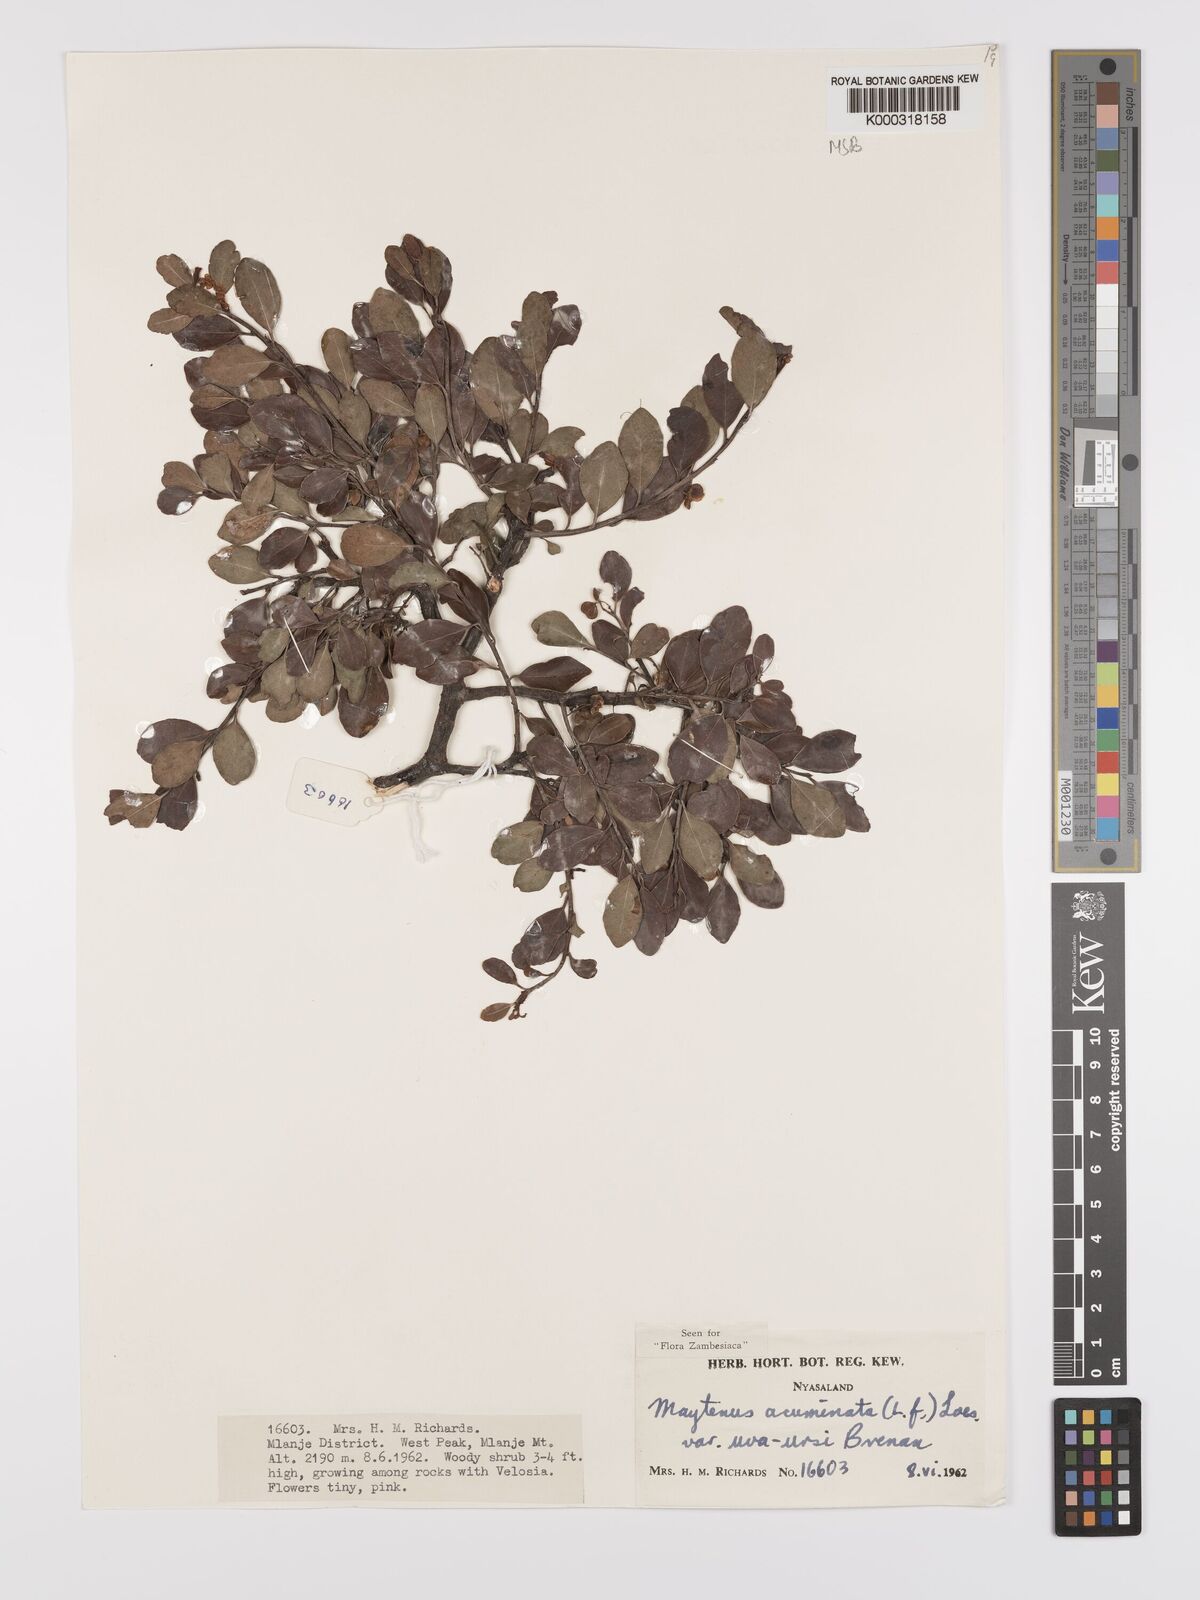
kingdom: Plantae
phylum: Tracheophyta
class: Magnoliopsida
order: Celastrales
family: Celastraceae
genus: Maytenus
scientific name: Maytenus
